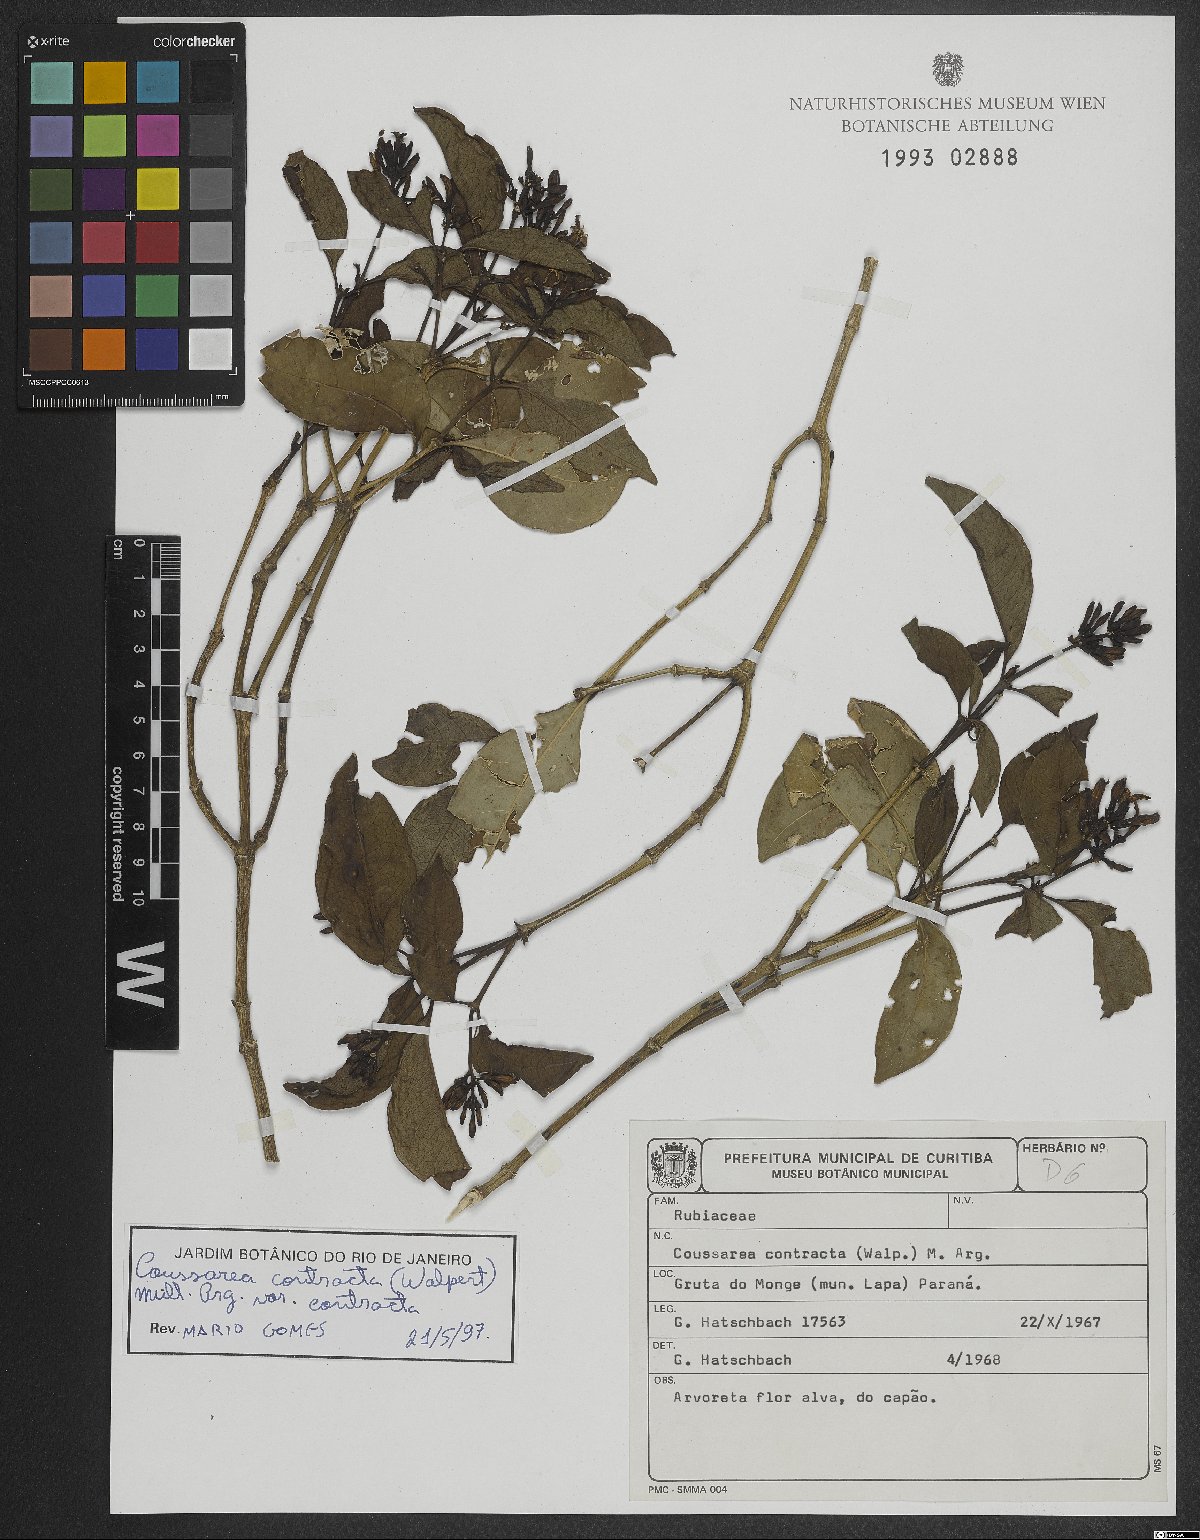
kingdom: Plantae
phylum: Tracheophyta
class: Magnoliopsida
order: Gentianales
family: Rubiaceae
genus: Coussarea
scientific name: Coussarea contracta
